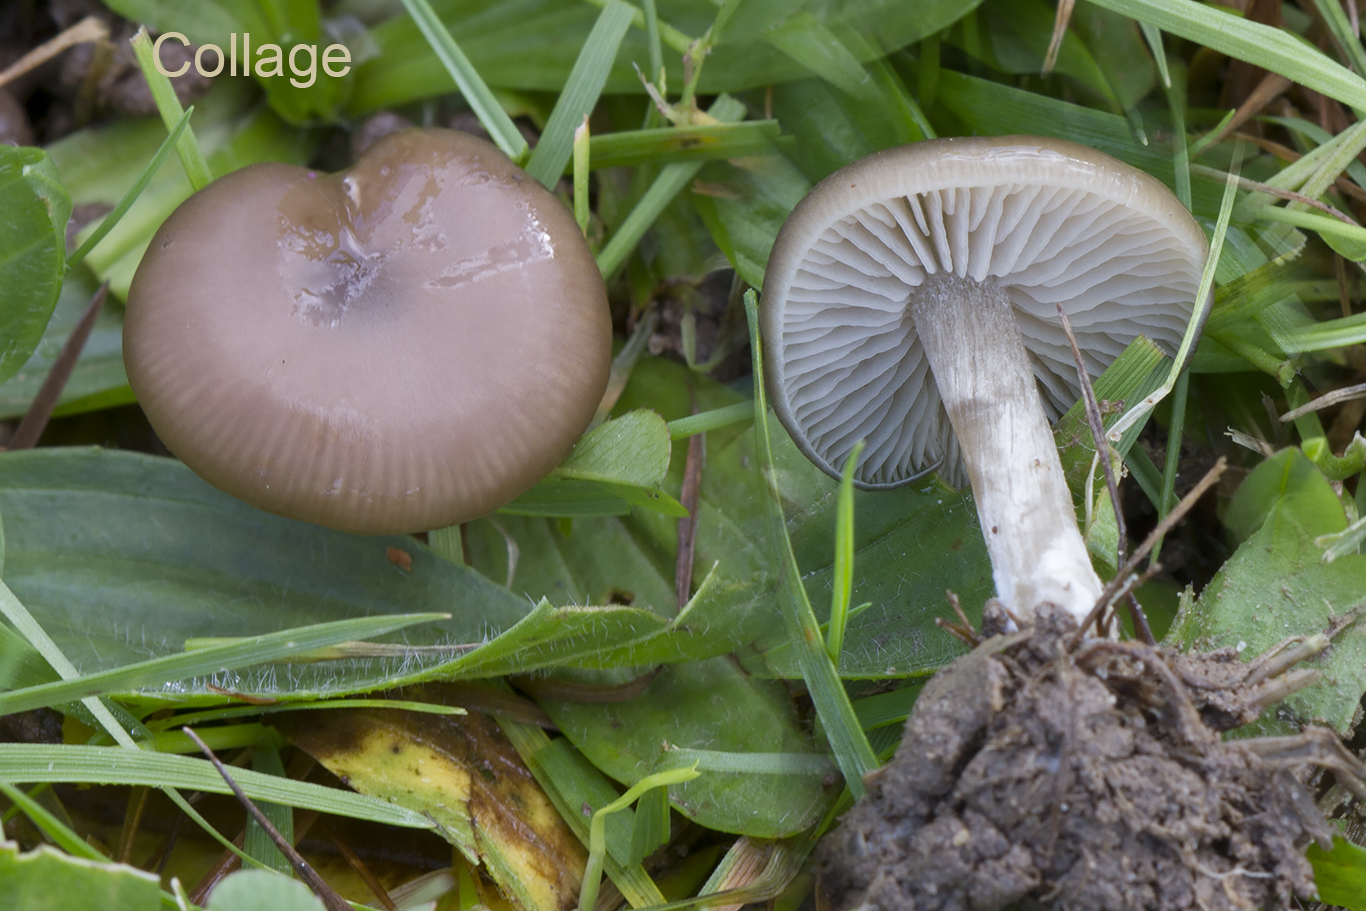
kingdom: Fungi
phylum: Basidiomycota
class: Agaricomycetes
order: Agaricales
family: Entolomataceae
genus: Entoloma
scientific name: Entoloma sericeum
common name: silkeglinsende rødblad
